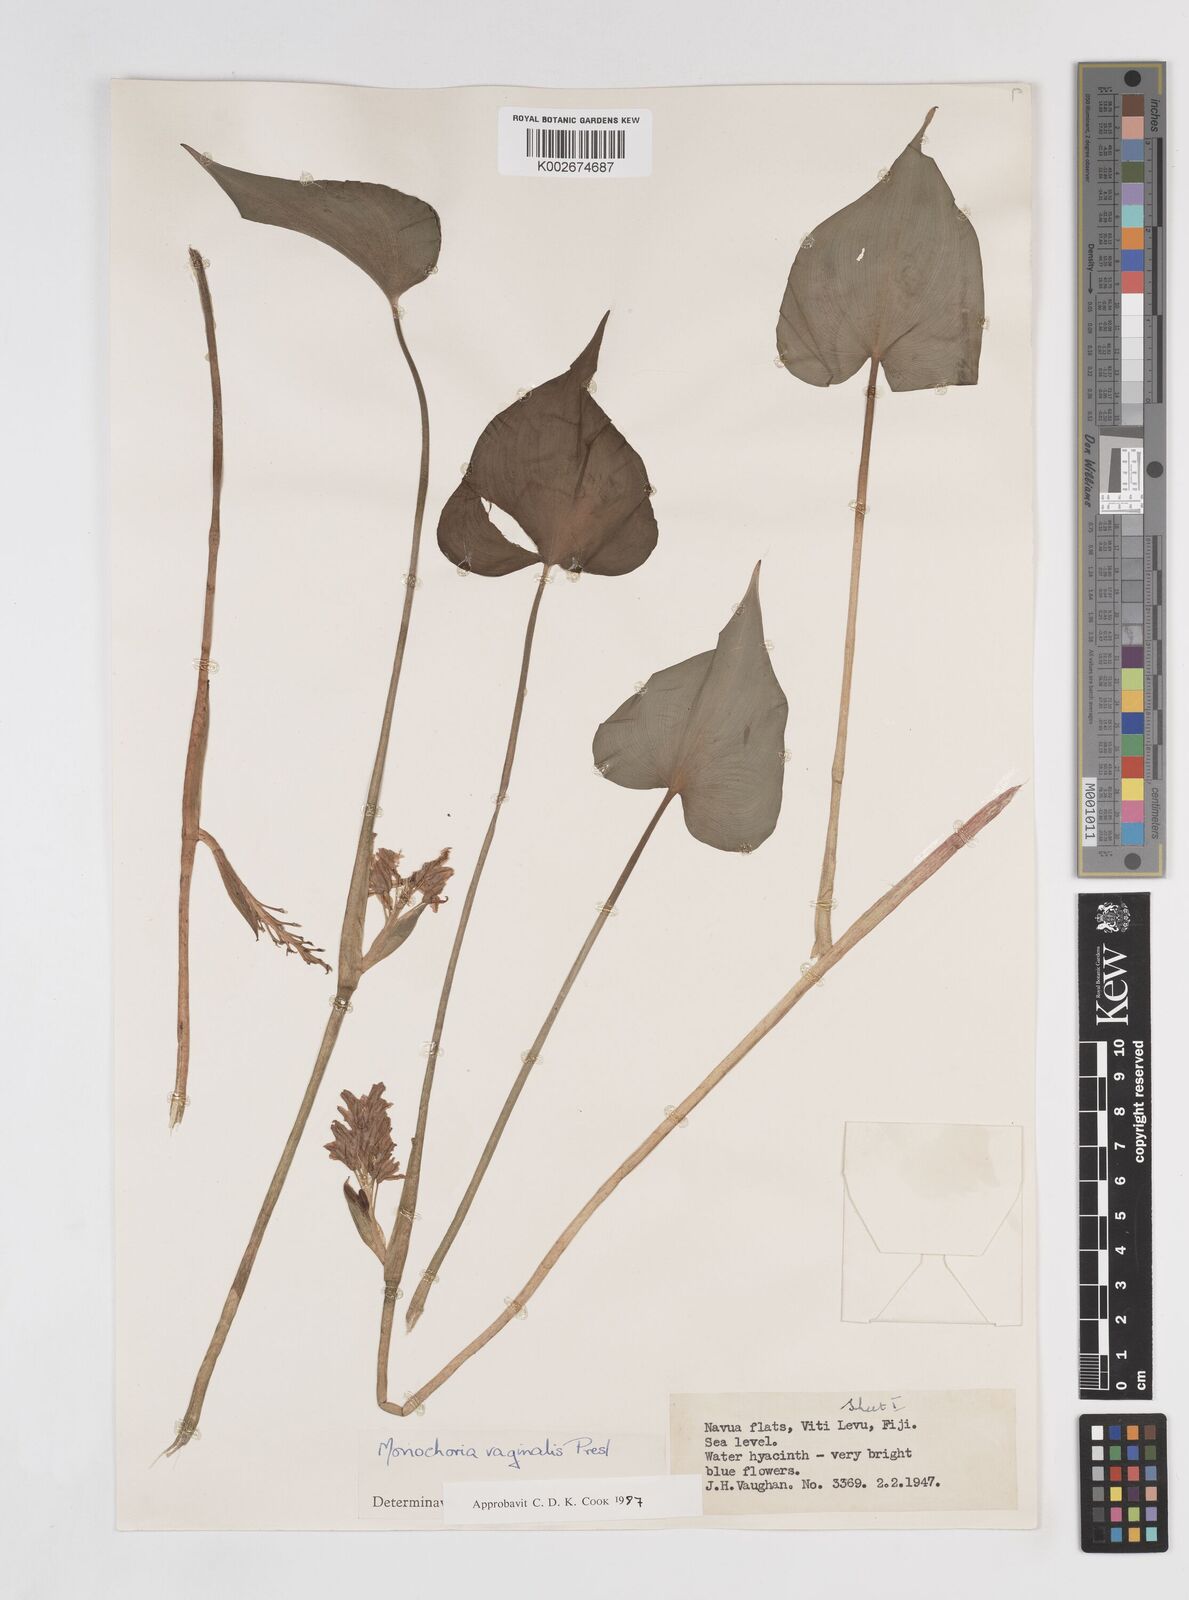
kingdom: Plantae
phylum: Tracheophyta
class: Liliopsida
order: Commelinales
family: Pontederiaceae
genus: Pontederia
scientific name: Pontederia vaginalis
